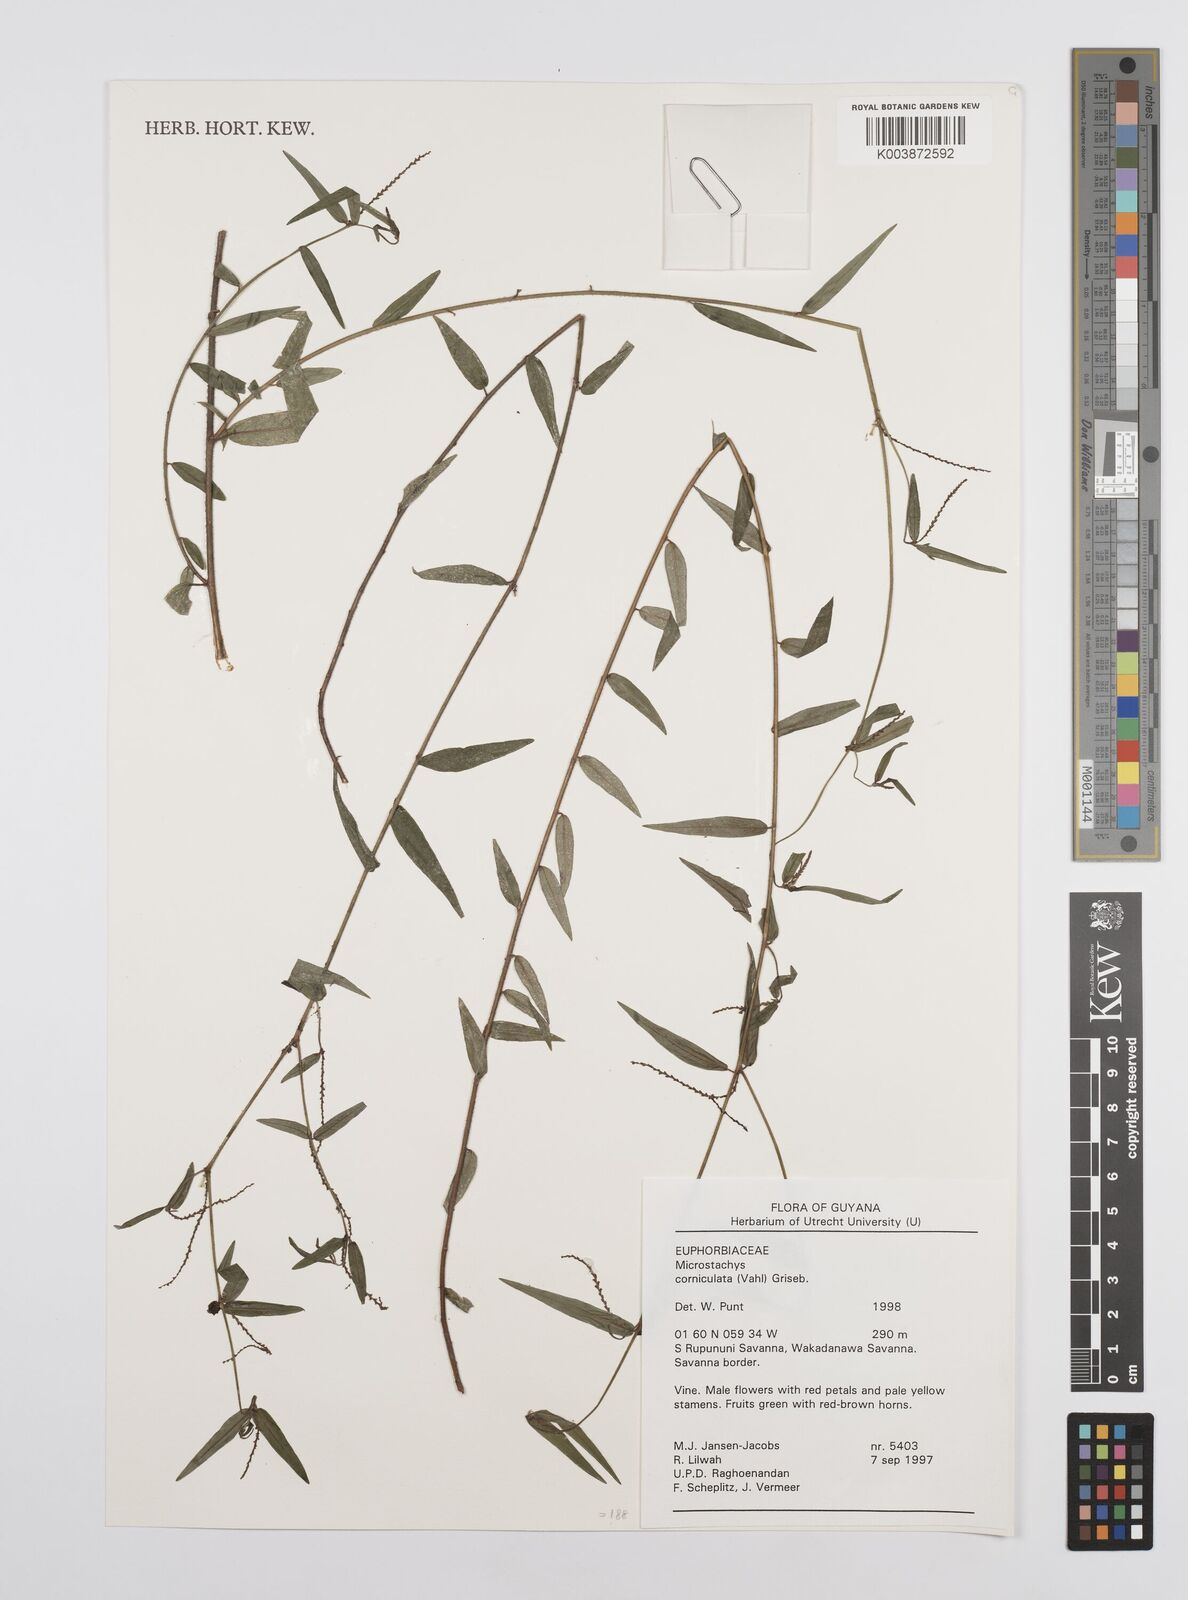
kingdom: Plantae
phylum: Tracheophyta
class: Magnoliopsida
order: Malpighiales
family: Euphorbiaceae
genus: Microstachys
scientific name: Microstachys corniculata
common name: Hato tejas
